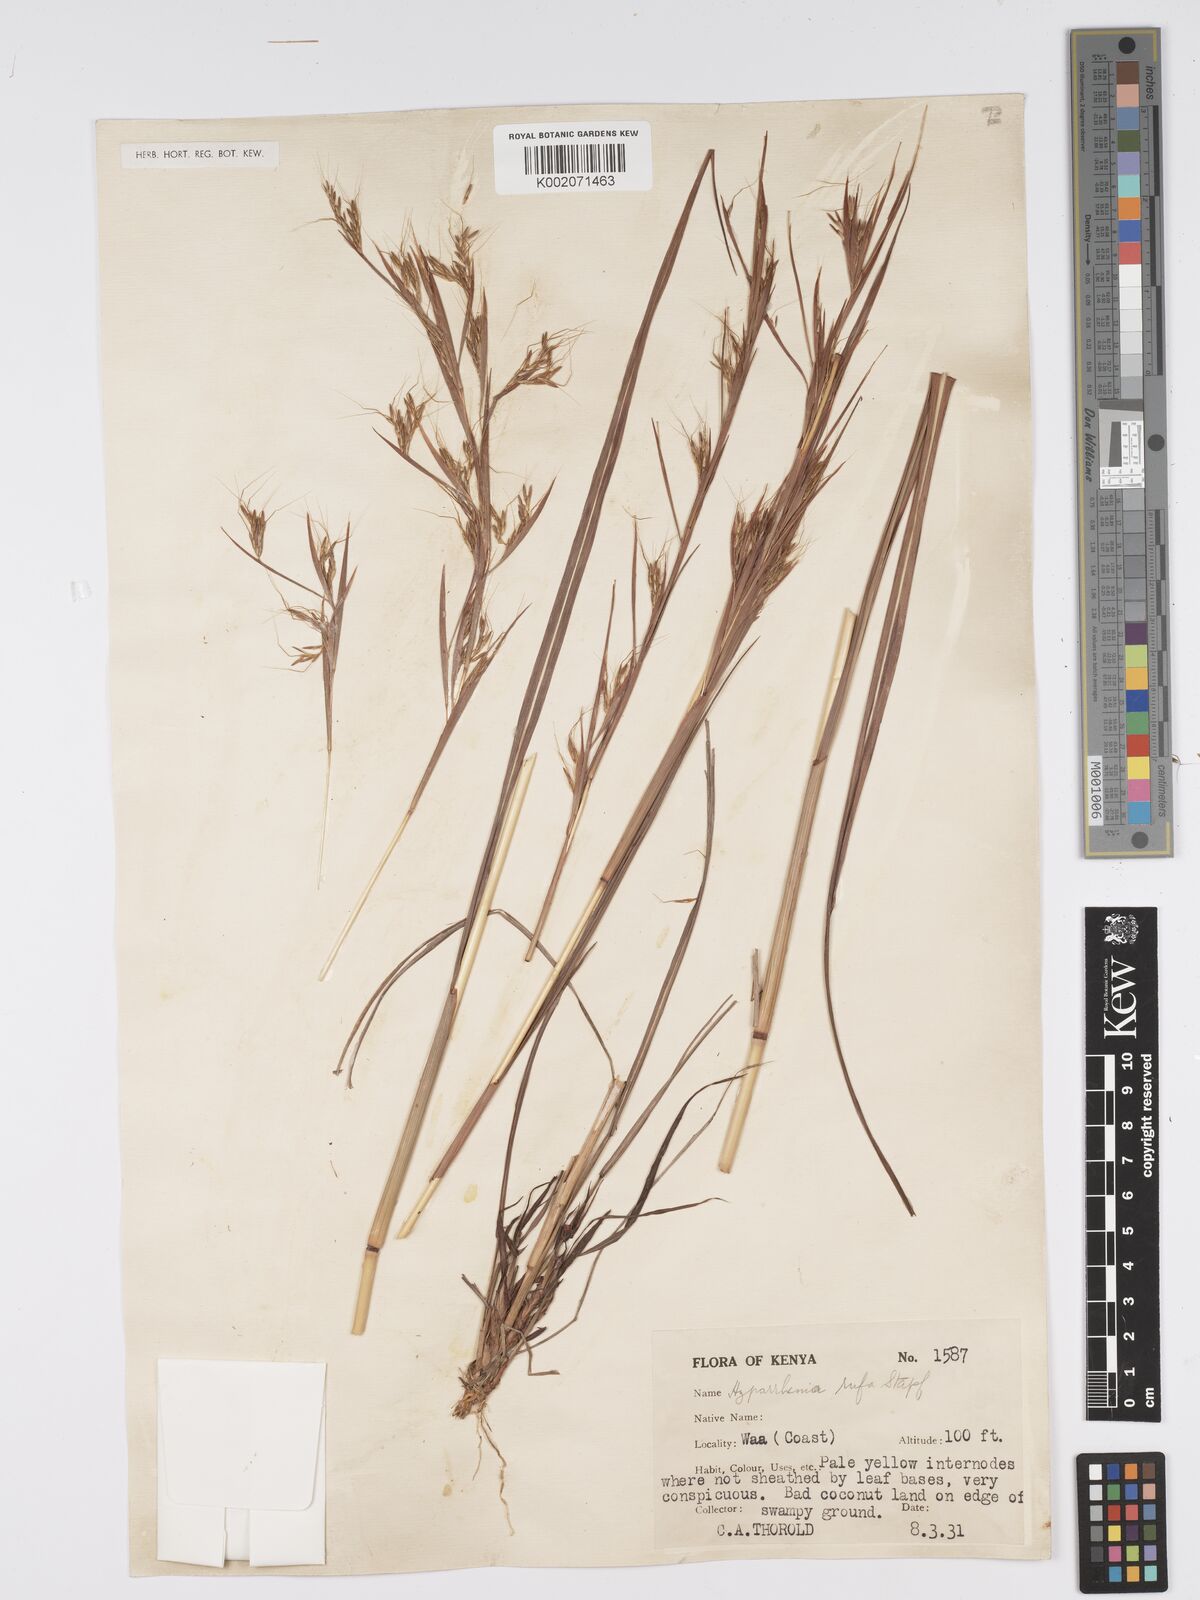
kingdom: Plantae
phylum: Tracheophyta
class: Liliopsida
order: Poales
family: Poaceae
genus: Hyparrhenia
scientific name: Hyparrhenia rufa
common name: Jaraguagrass
